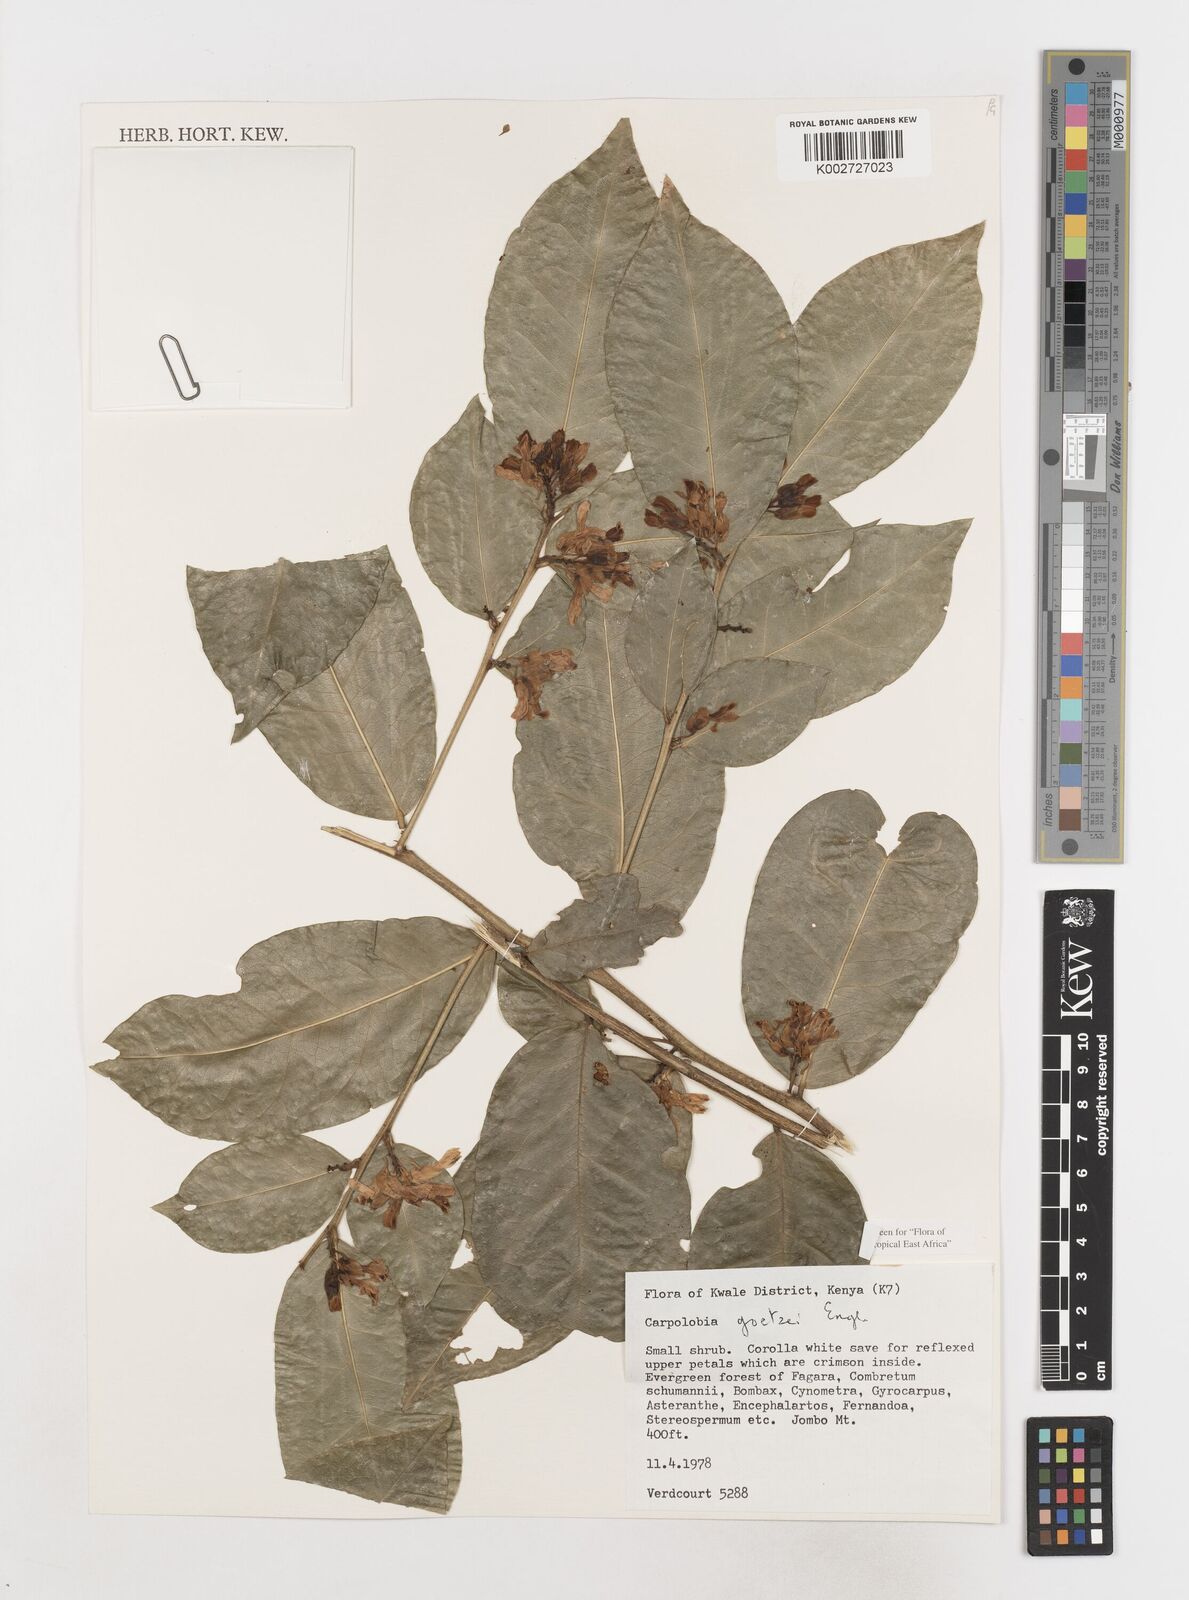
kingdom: Plantae
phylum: Tracheophyta
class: Magnoliopsida
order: Fabales
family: Polygalaceae
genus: Carpolobia
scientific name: Carpolobia goetzei
